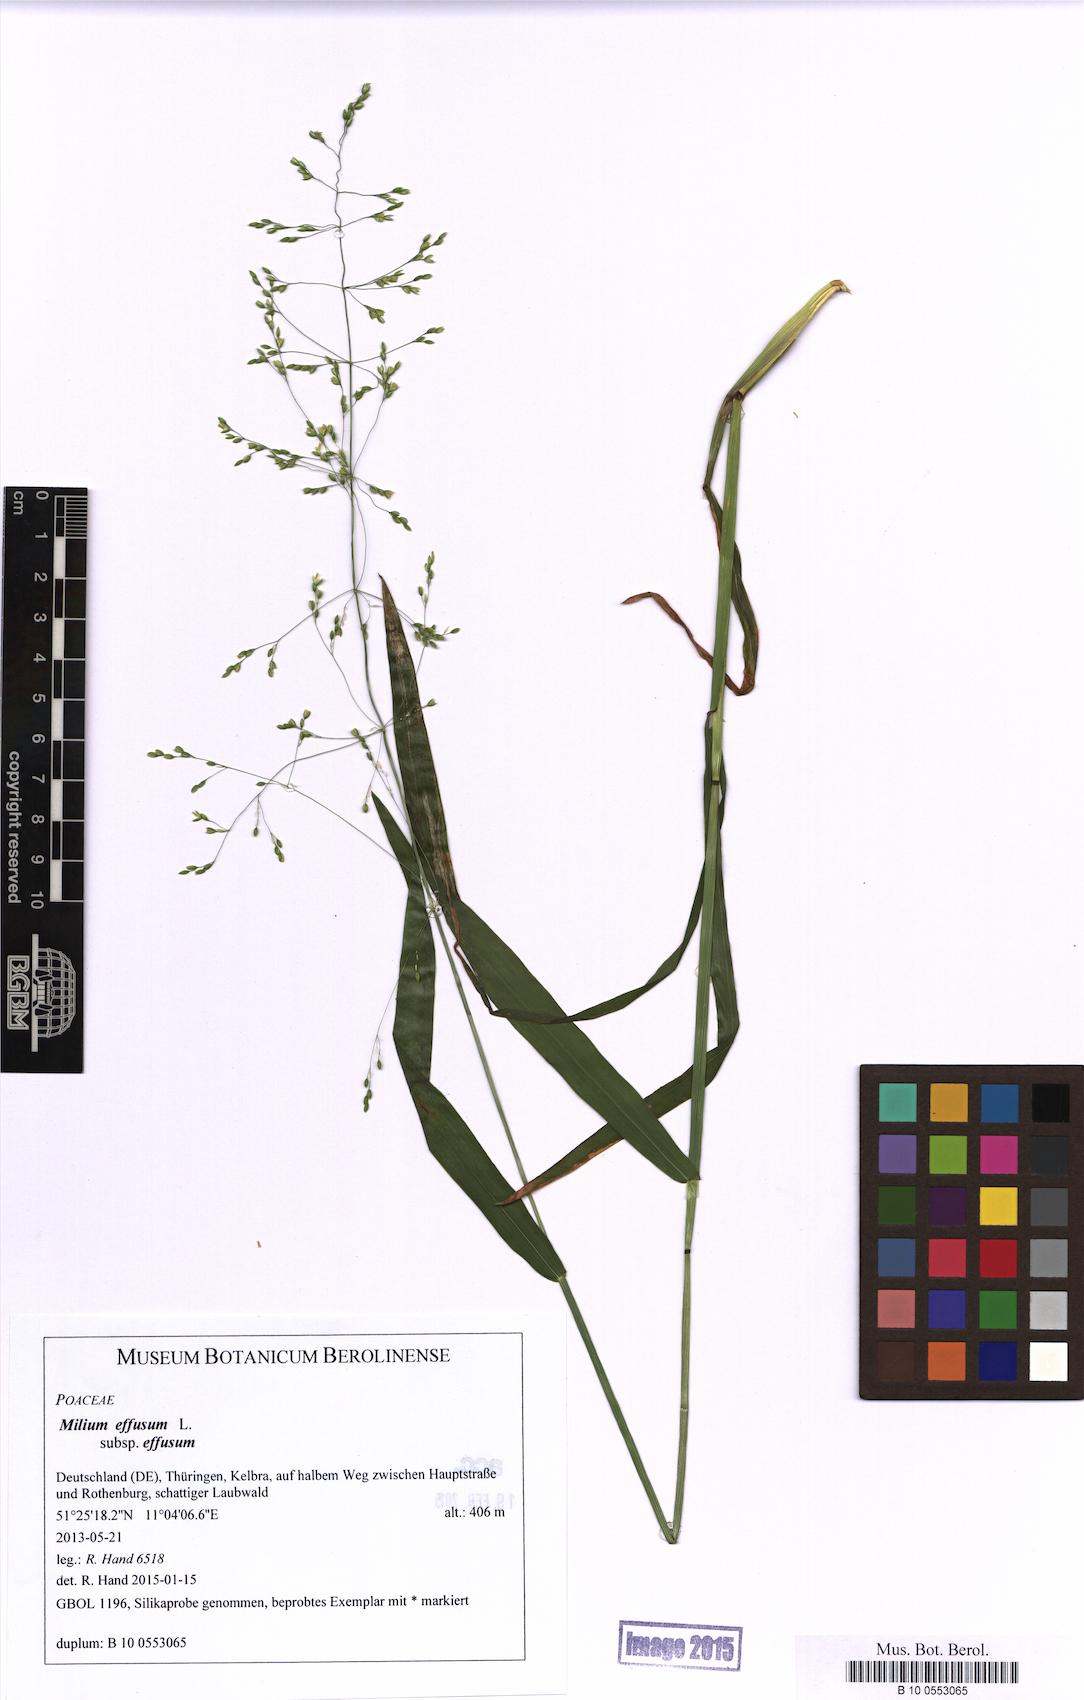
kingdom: Plantae
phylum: Tracheophyta
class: Liliopsida
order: Poales
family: Poaceae
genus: Milium
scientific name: Milium effusum
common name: Wood millet
